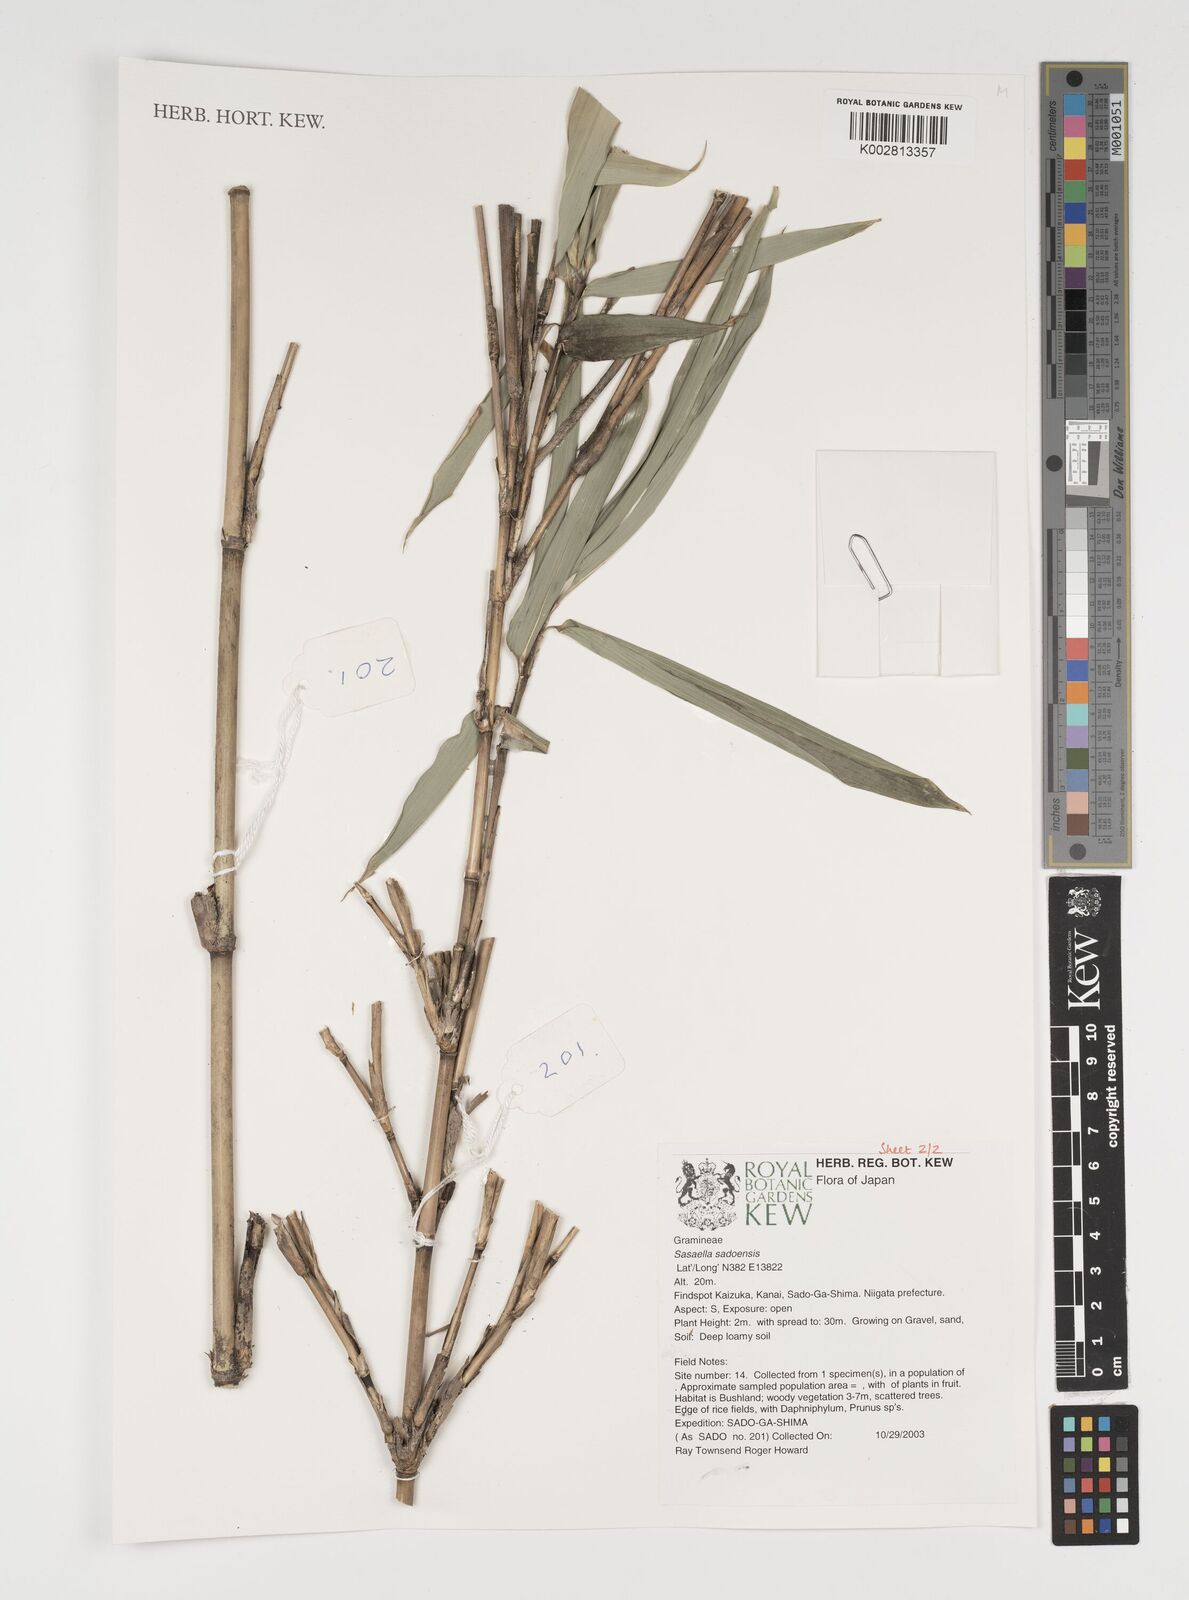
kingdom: Plantae
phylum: Tracheophyta
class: Liliopsida
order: Poales
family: Poaceae
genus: Sasa
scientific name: Sasa
